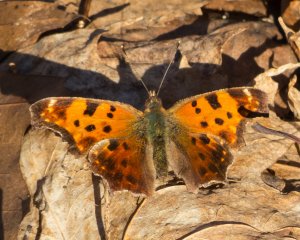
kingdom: Animalia
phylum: Arthropoda
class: Insecta
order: Lepidoptera
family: Nymphalidae
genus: Polygonia
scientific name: Polygonia comma
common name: Eastern Comma
